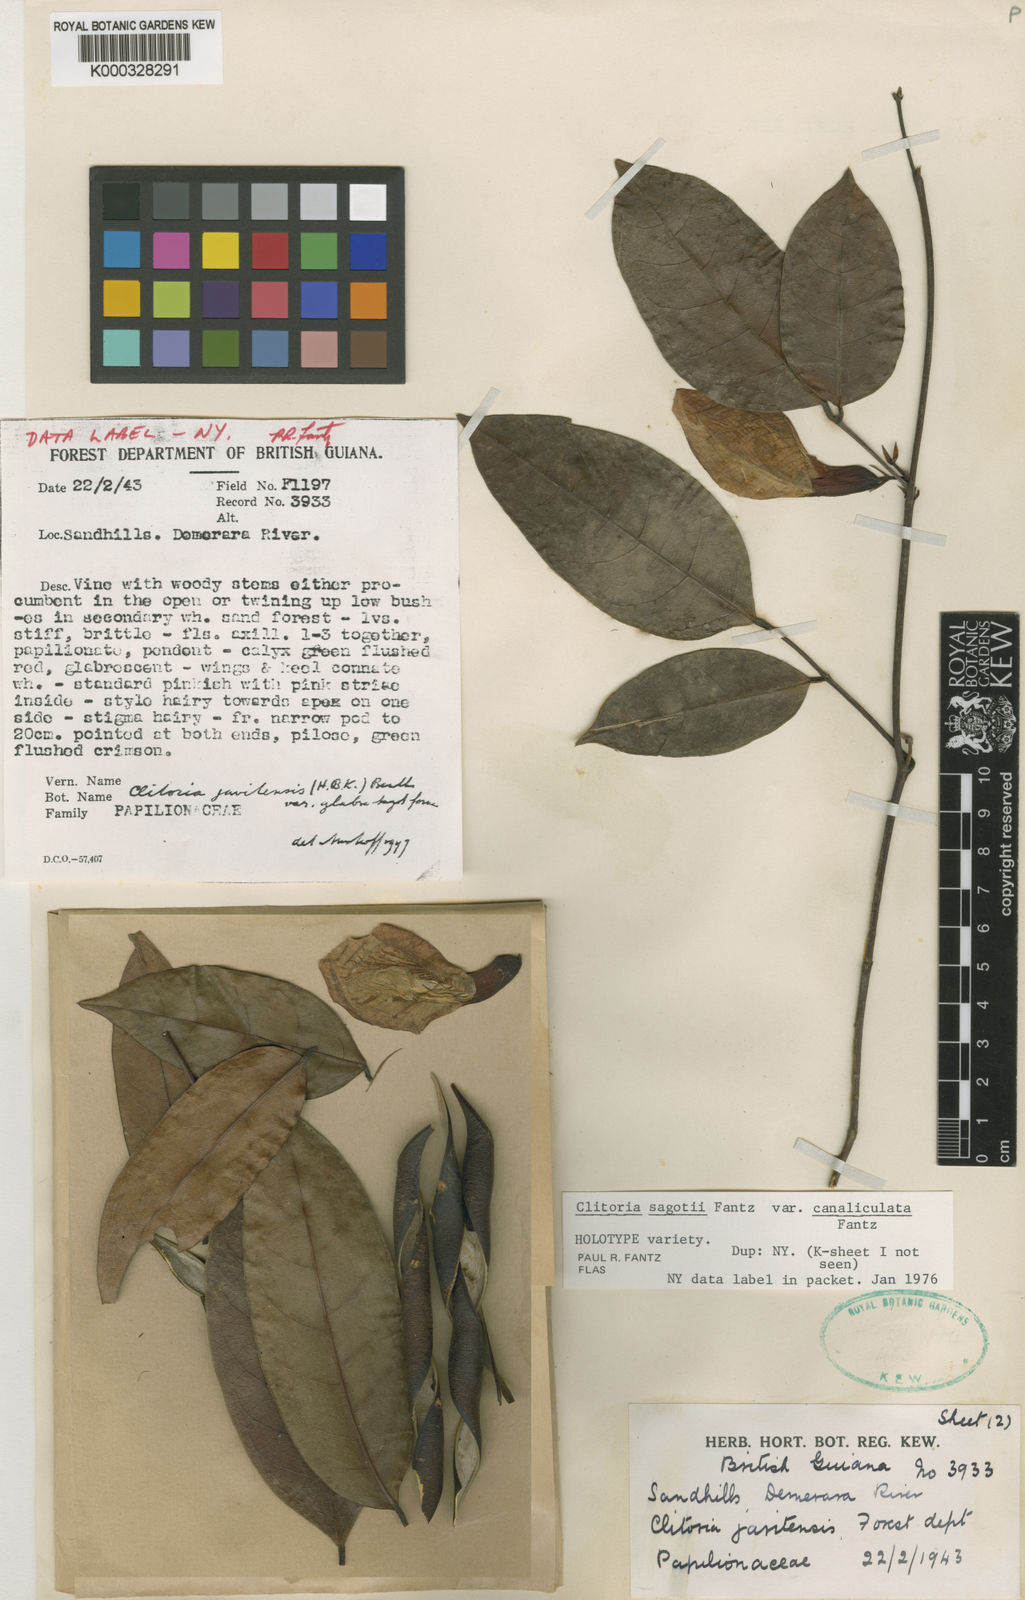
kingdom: Plantae
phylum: Tracheophyta
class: Magnoliopsida
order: Fabales
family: Fabaceae
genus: Clitoria
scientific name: Clitoria sagotii
